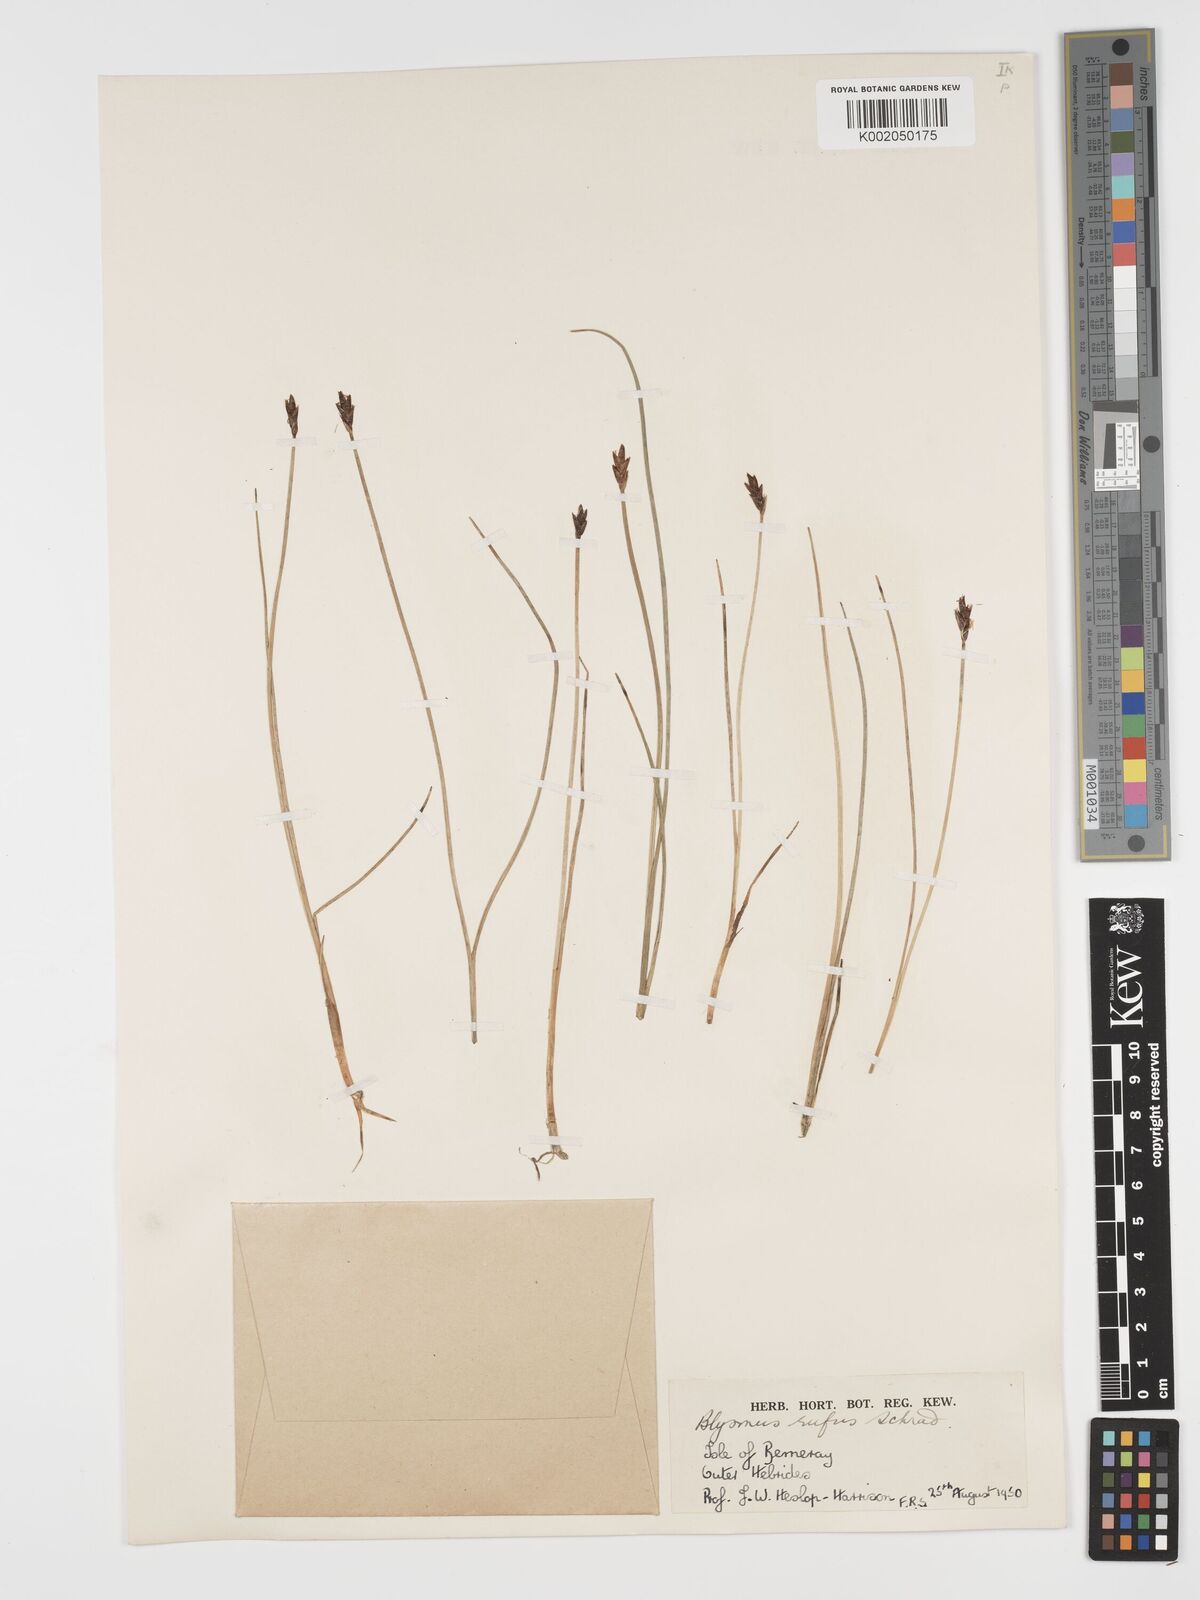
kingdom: Plantae
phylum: Tracheophyta
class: Liliopsida
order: Poales
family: Cyperaceae
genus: Blysmus
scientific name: Blysmus rufus
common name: Saltmarsh flat-sedge
